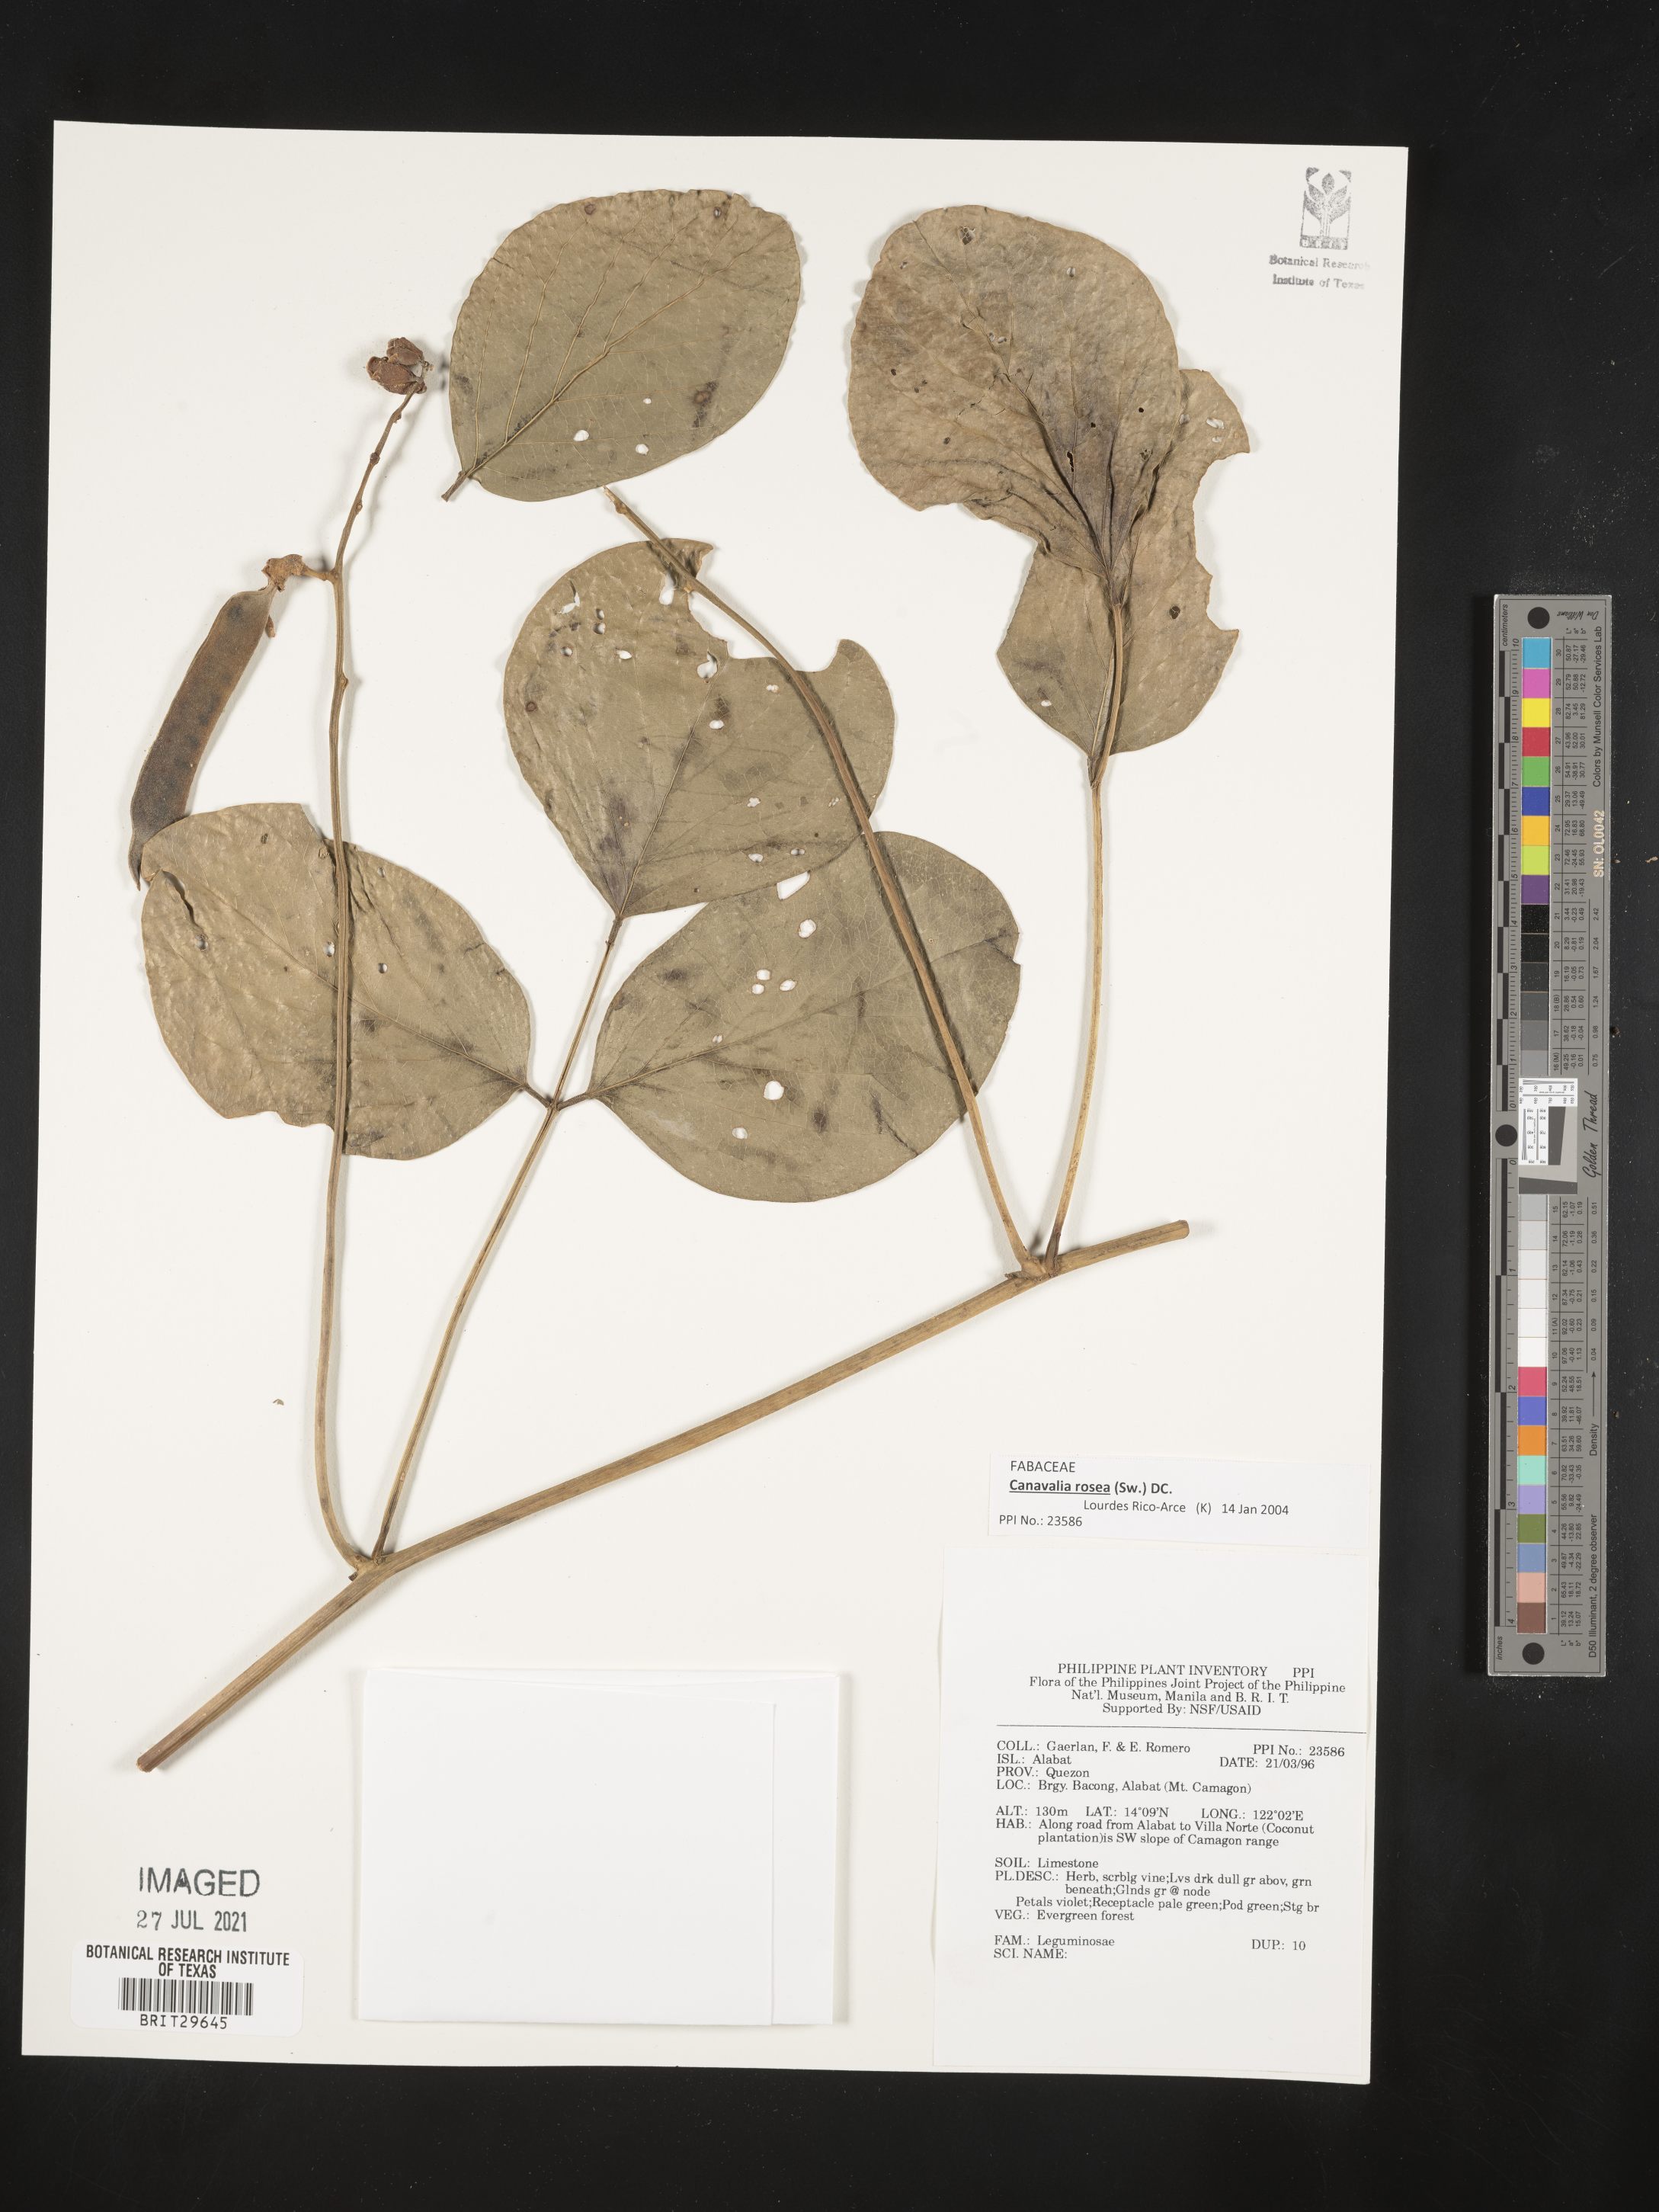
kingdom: Plantae
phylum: Tracheophyta
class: Magnoliopsida
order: Fabales
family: Fabaceae
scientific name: Fabaceae
